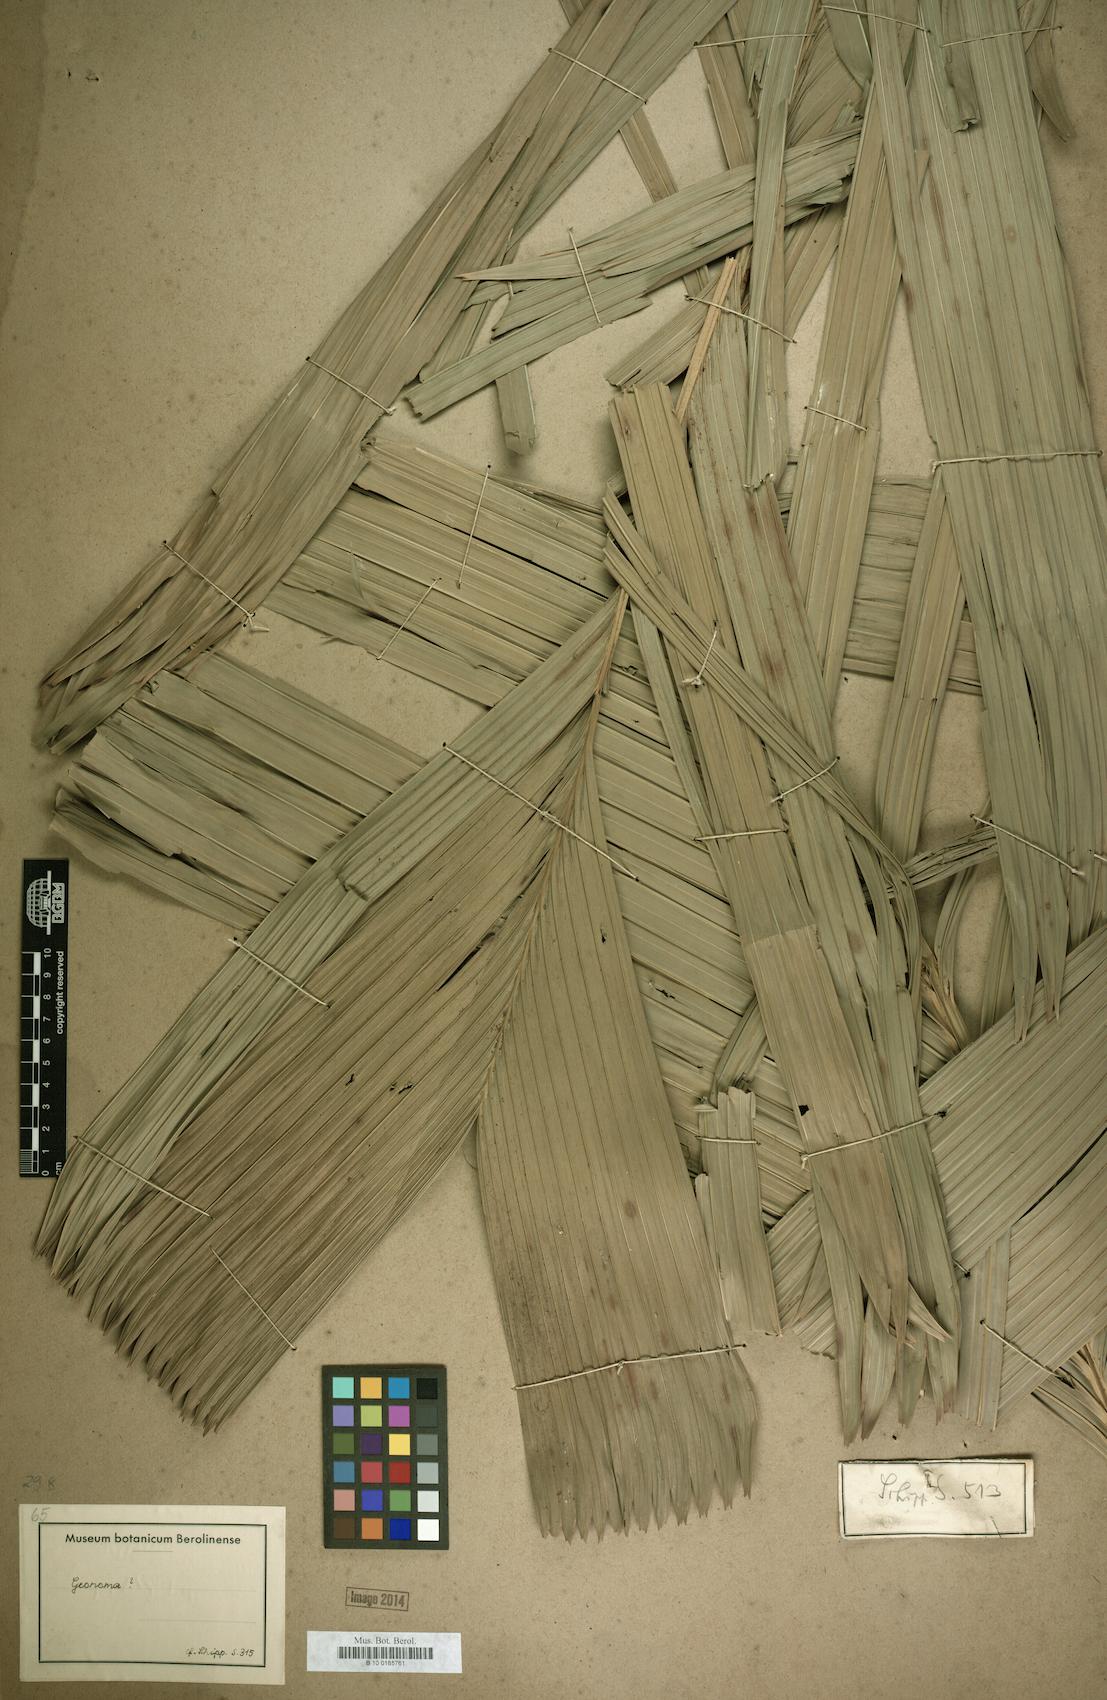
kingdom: Plantae
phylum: Tracheophyta
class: Liliopsida
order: Arecales
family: Arecaceae
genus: Geonoma
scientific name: Geonoma
